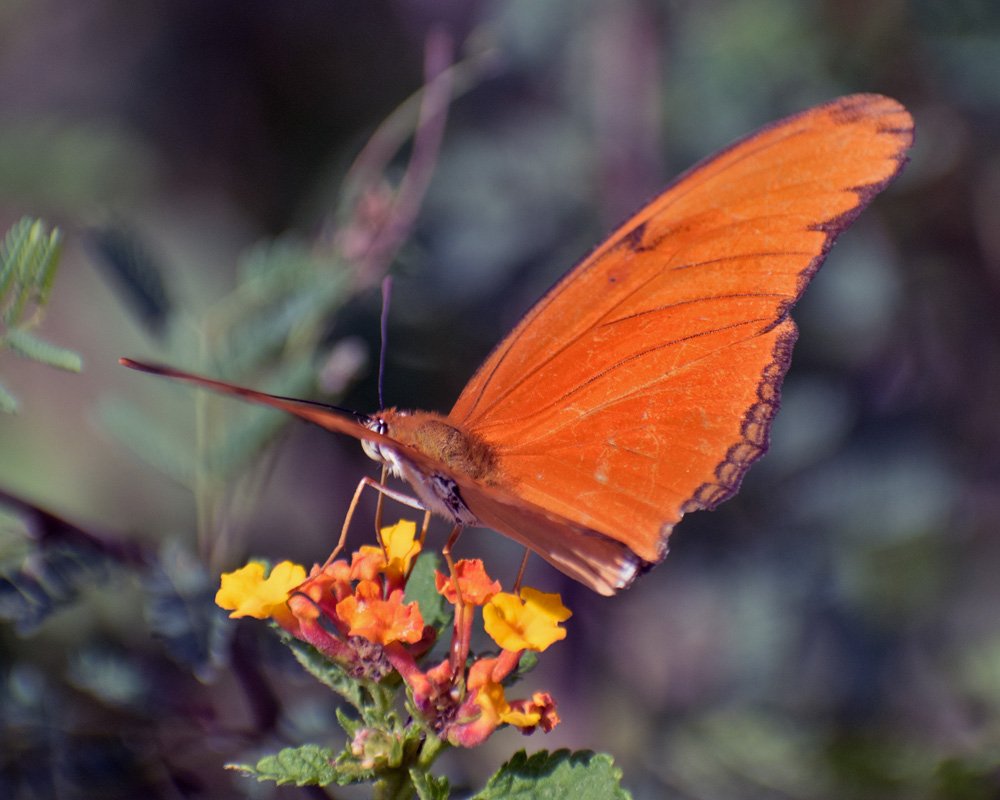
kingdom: Animalia
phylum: Arthropoda
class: Insecta
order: Lepidoptera
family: Nymphalidae
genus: Dryas
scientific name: Dryas iulia
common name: Julia
